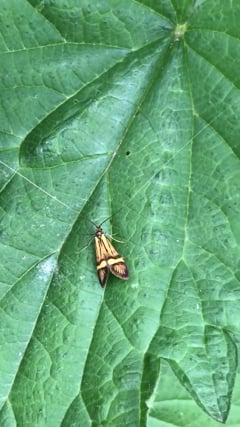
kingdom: Animalia
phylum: Arthropoda
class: Insecta
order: Lepidoptera
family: Adelidae
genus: Nemophora
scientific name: Nemophora degeerella
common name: Yellow-barred long-horn
